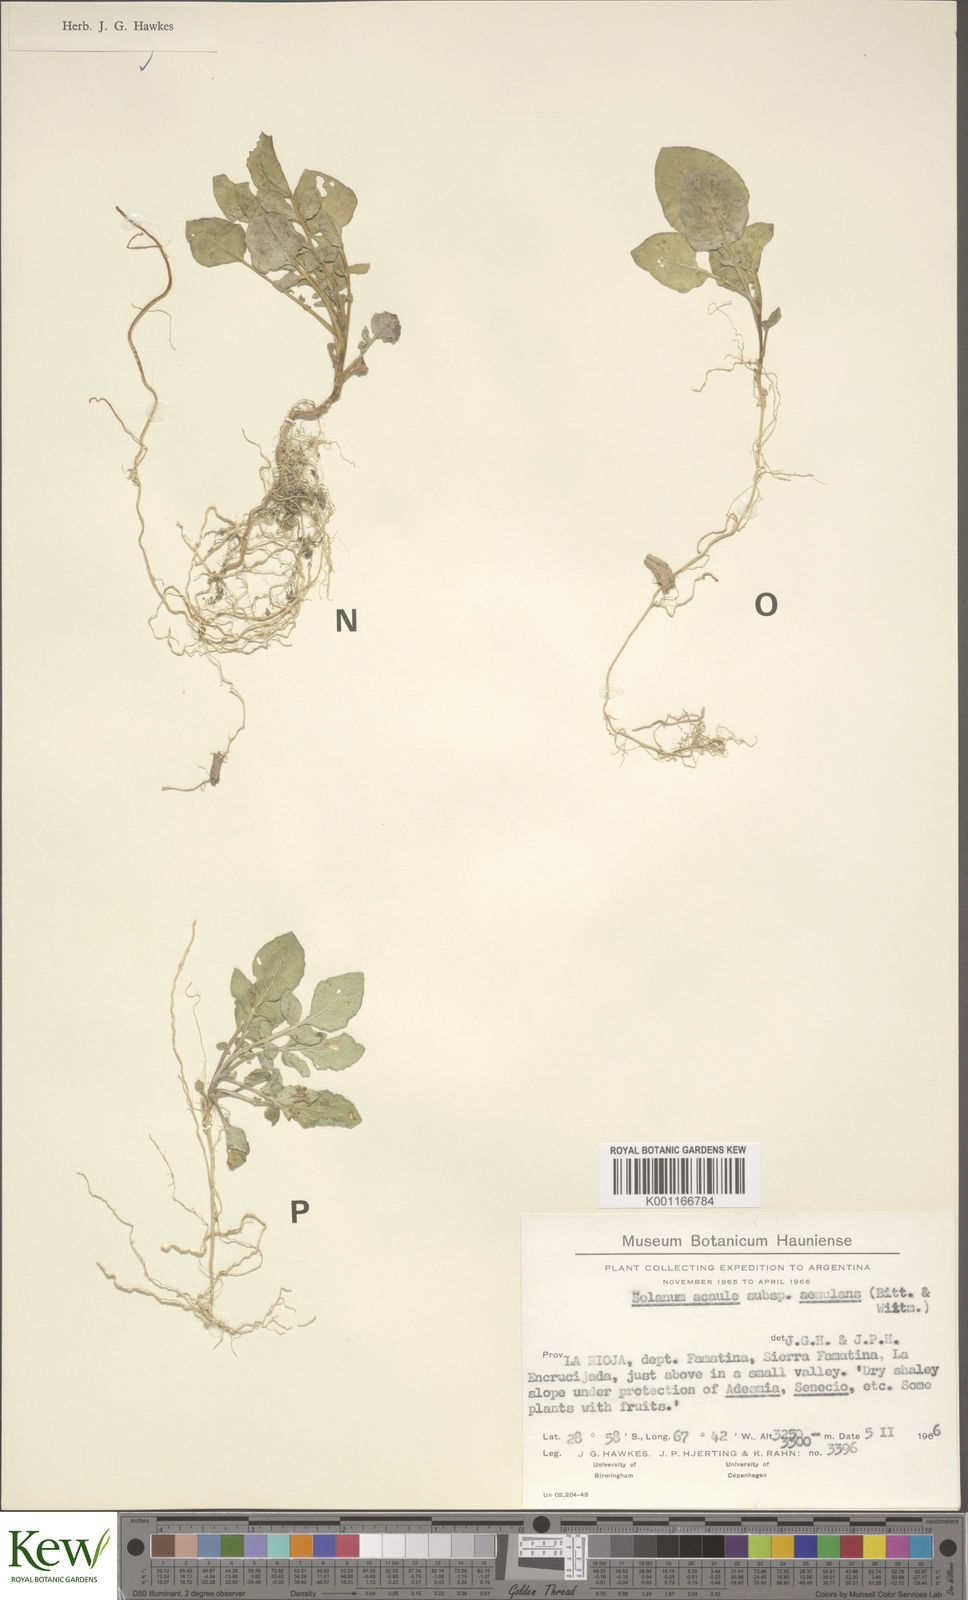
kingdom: Plantae
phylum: Tracheophyta
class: Magnoliopsida
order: Solanales
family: Solanaceae
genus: Solanum
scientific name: Solanum aemulans
